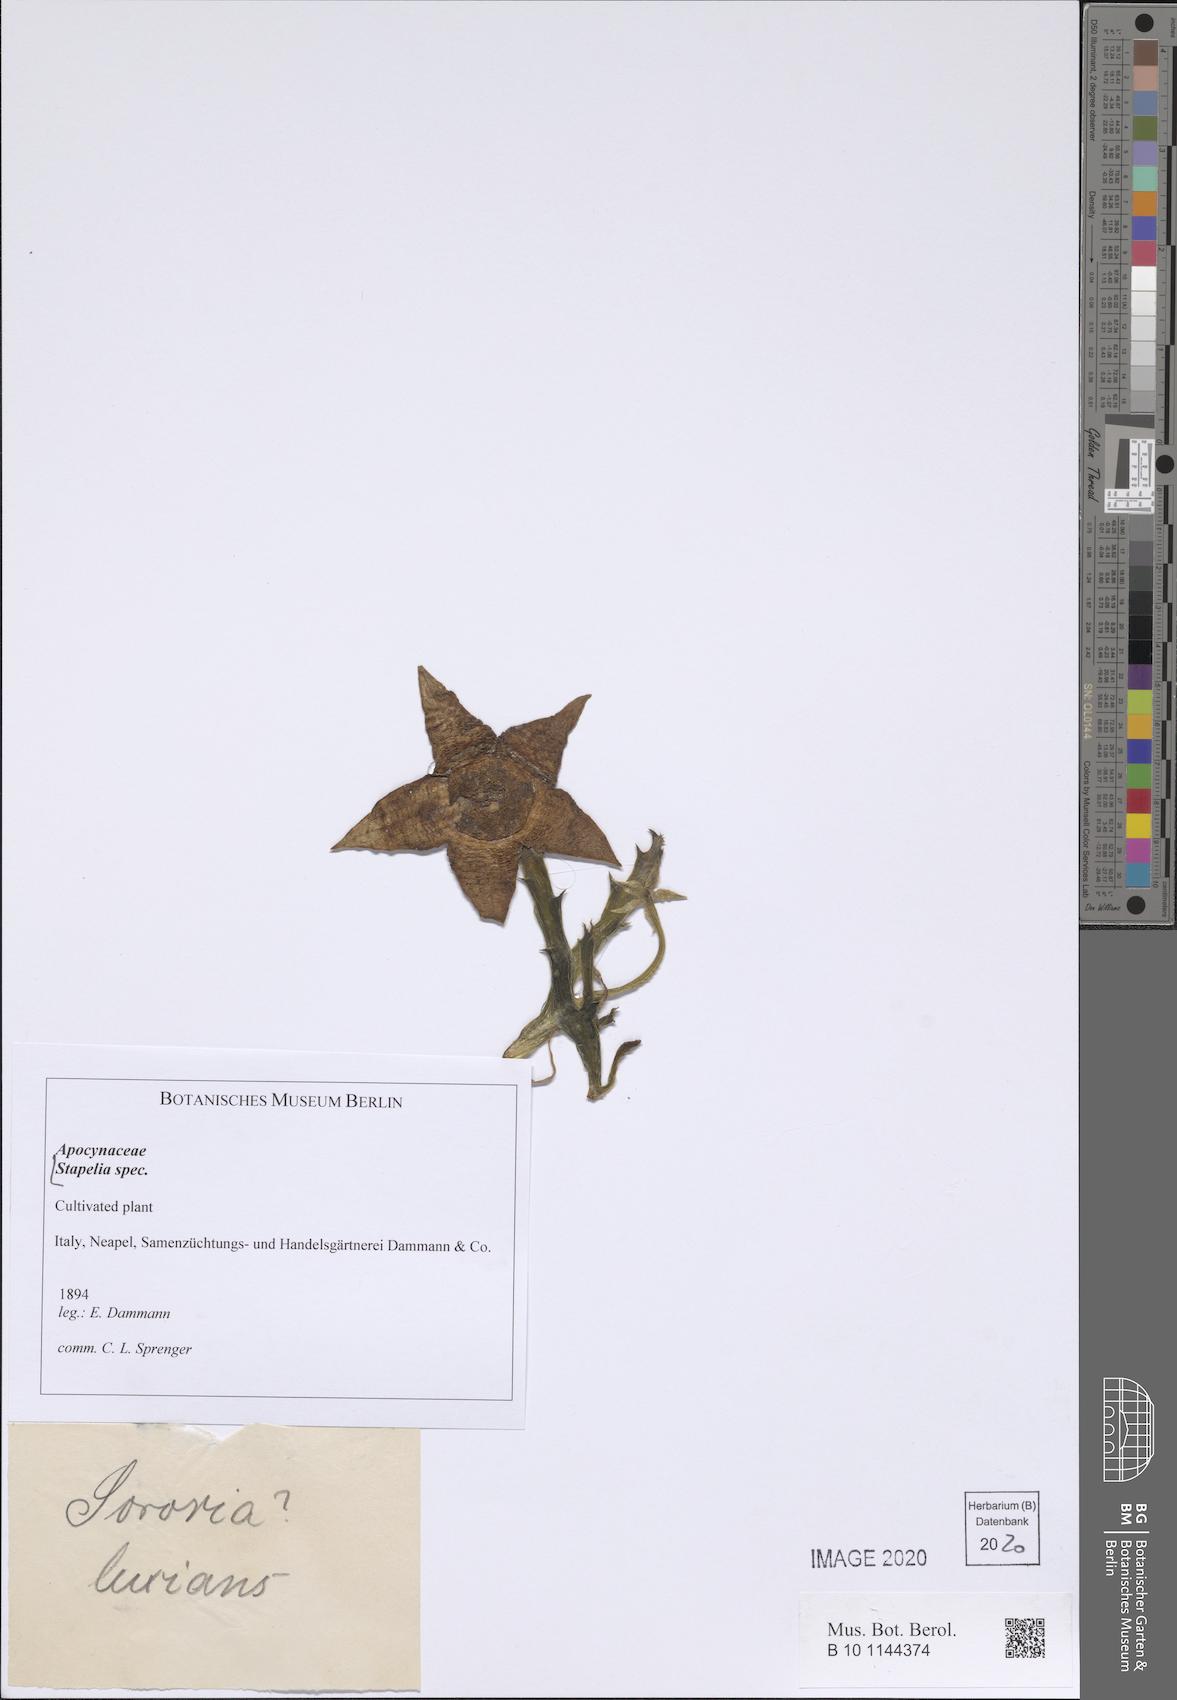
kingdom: Plantae
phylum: Tracheophyta
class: Magnoliopsida
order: Gentianales
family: Apocynaceae
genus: Stapelia
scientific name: Stapelia
